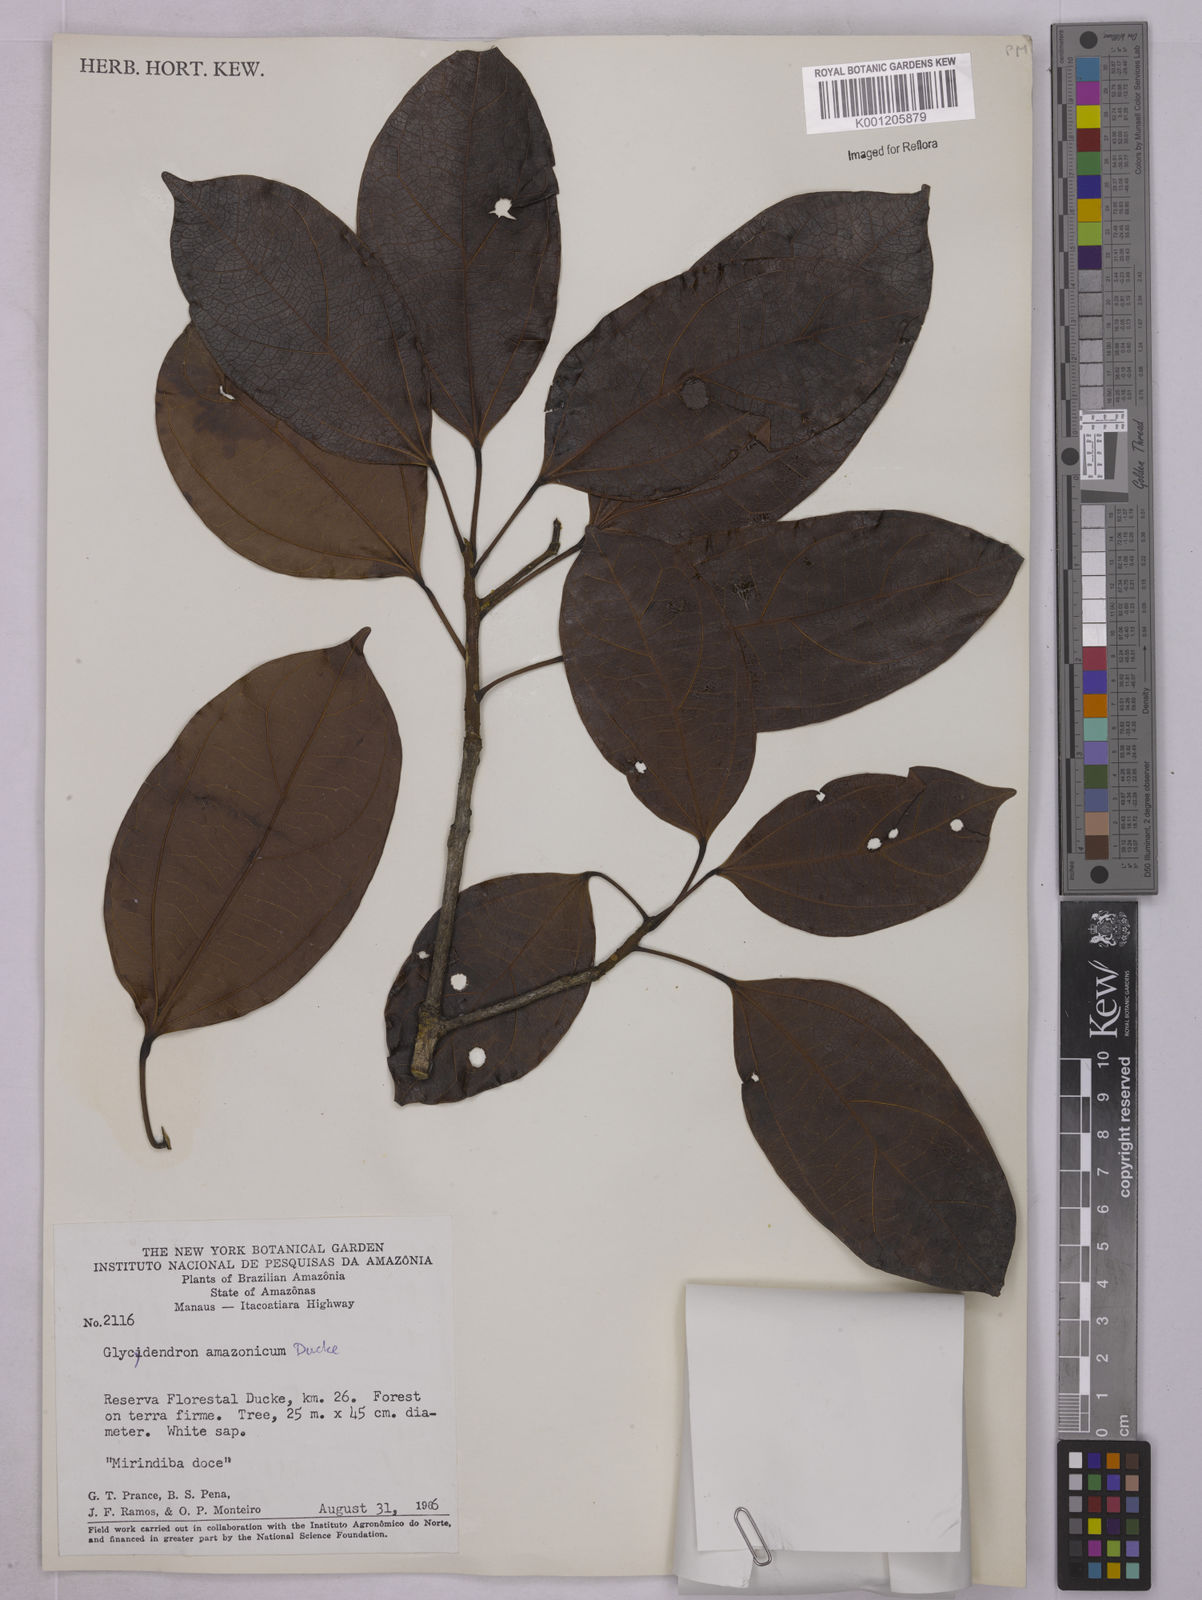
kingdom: Plantae
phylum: Tracheophyta
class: Magnoliopsida
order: Malpighiales
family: Euphorbiaceae
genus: Glycydendron
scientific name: Glycydendron amazonicum
